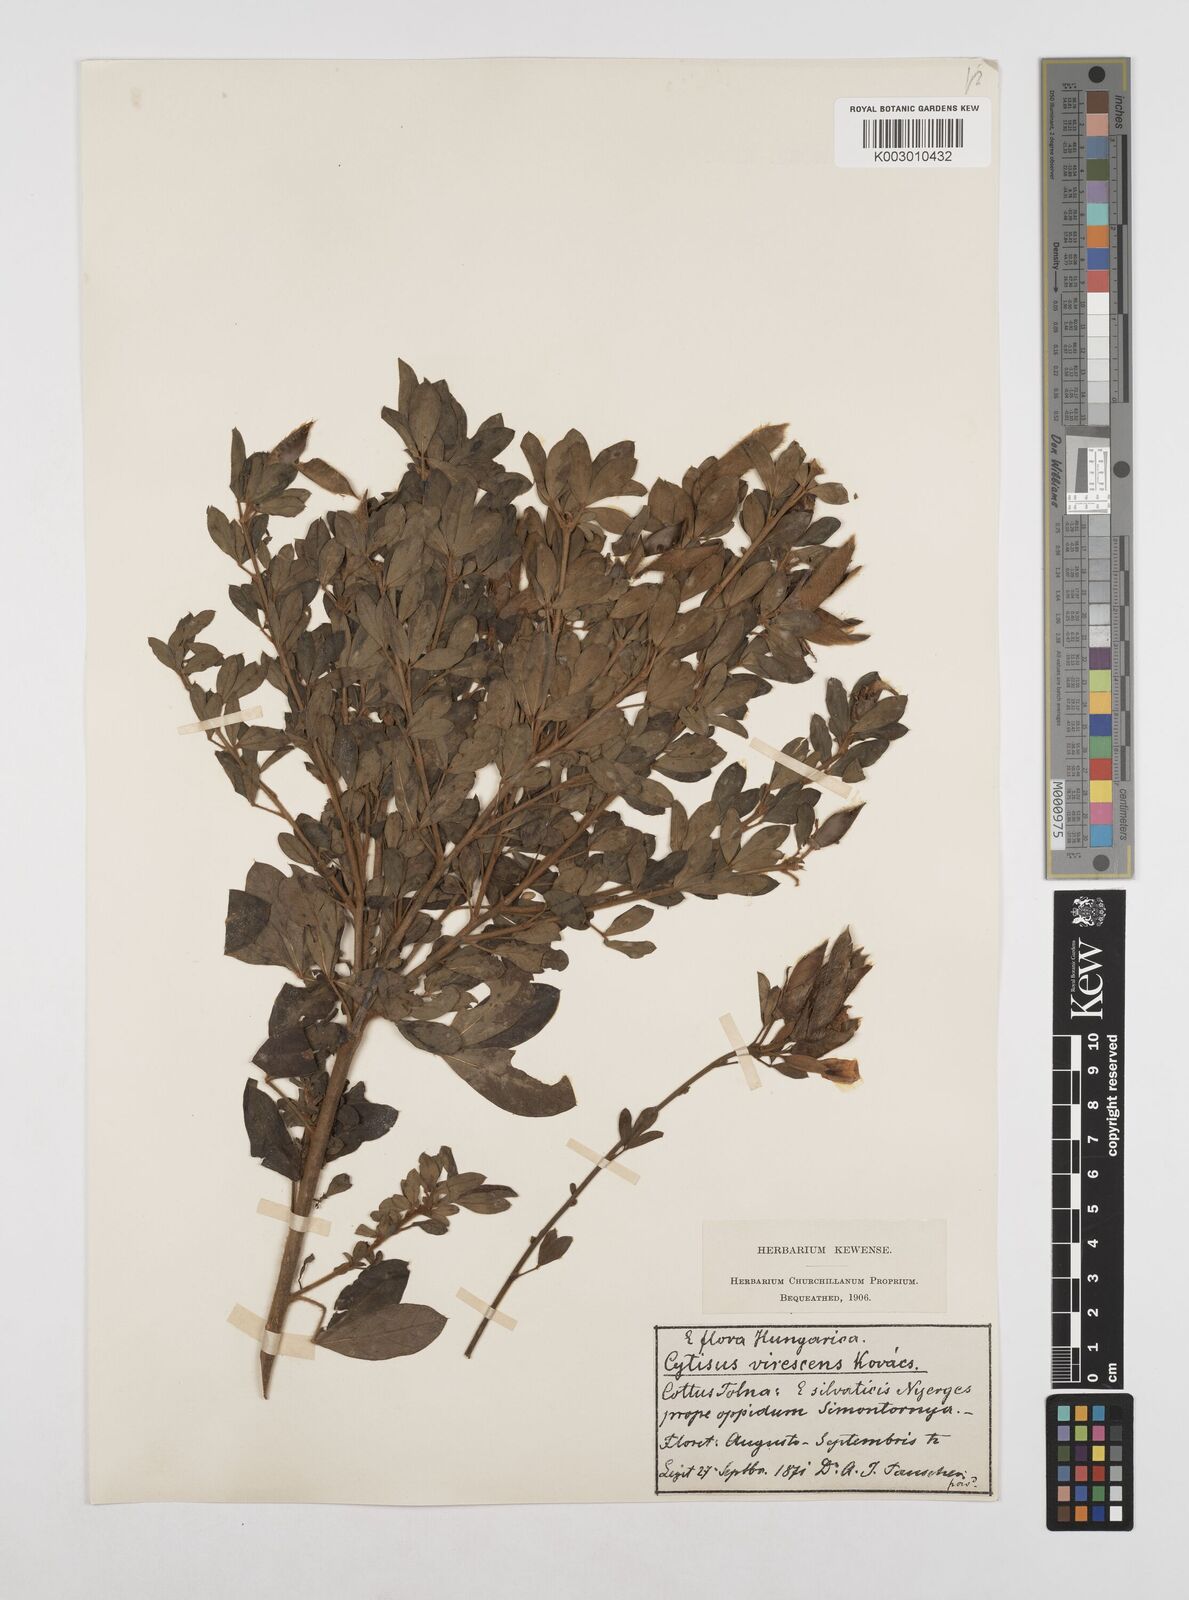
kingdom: Plantae
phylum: Tracheophyta
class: Magnoliopsida
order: Fabales
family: Fabaceae
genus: Chamaecytisus
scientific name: Chamaecytisus austriacus
